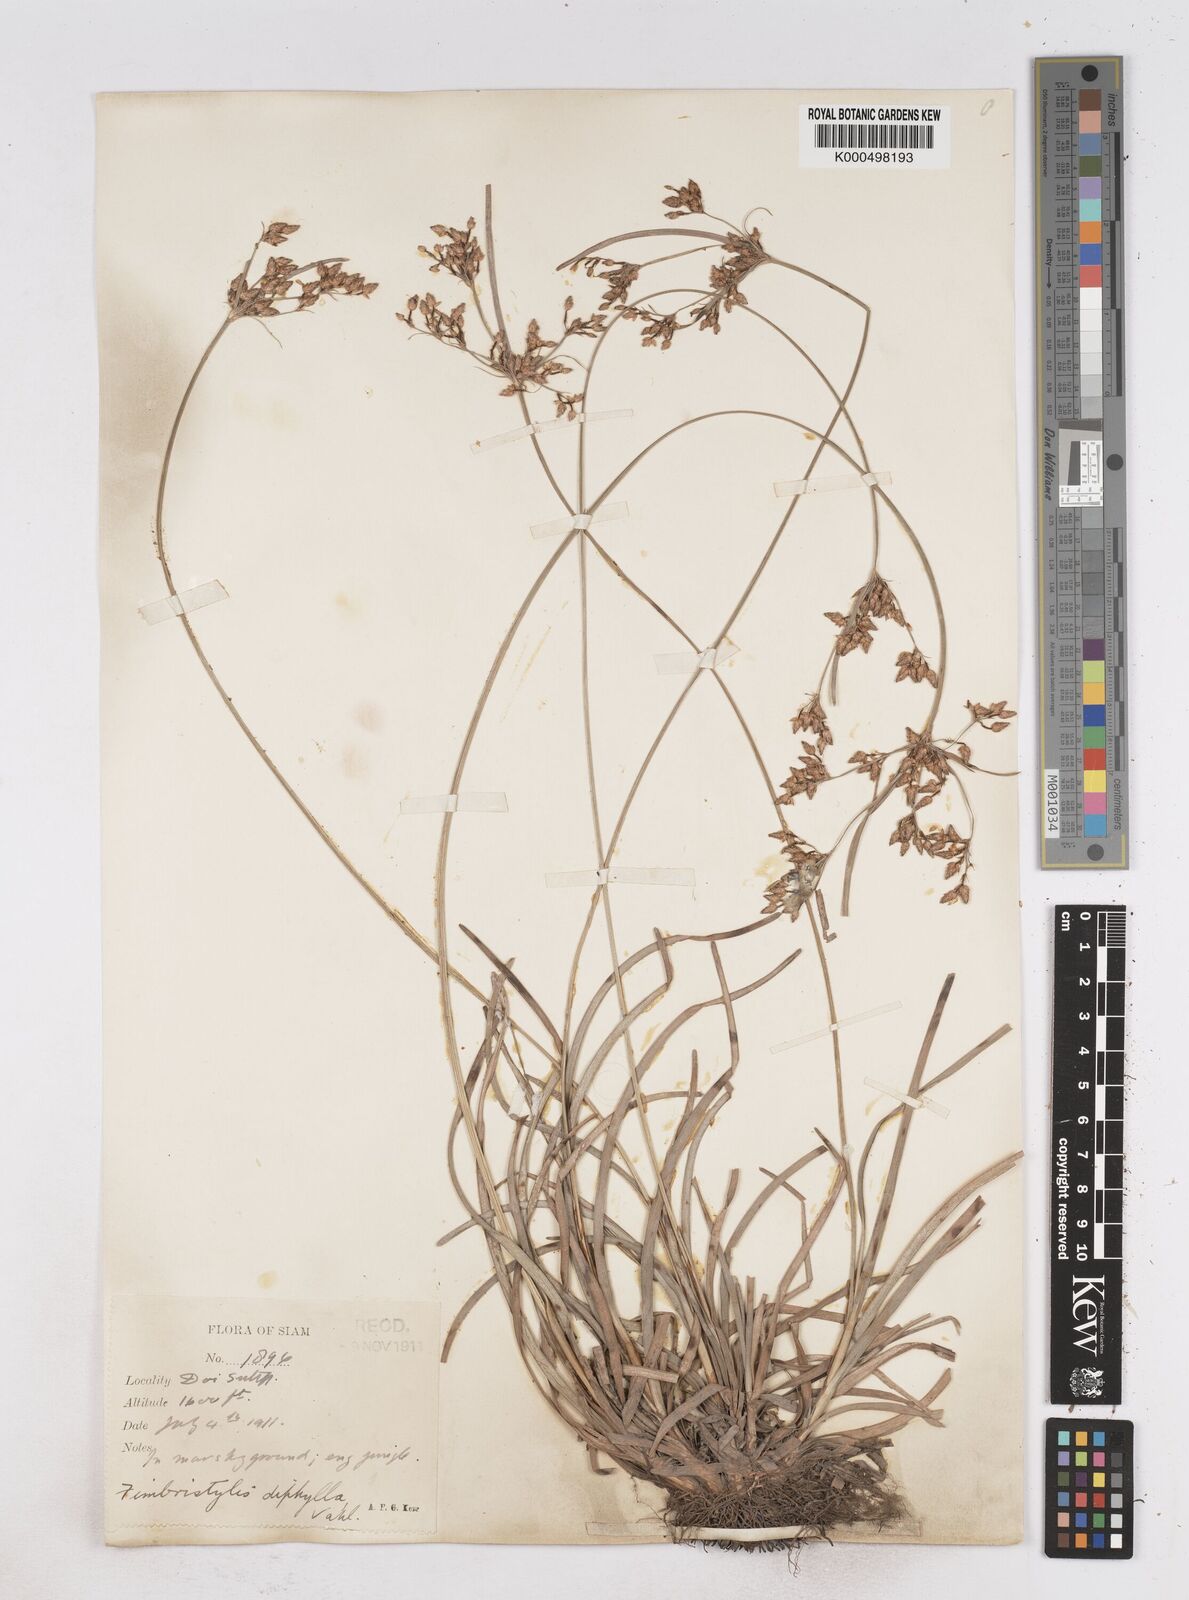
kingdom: Plantae
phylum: Tracheophyta
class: Liliopsida
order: Poales
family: Cyperaceae
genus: Fimbristylis
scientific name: Fimbristylis dichotoma
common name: Forked fimbry
